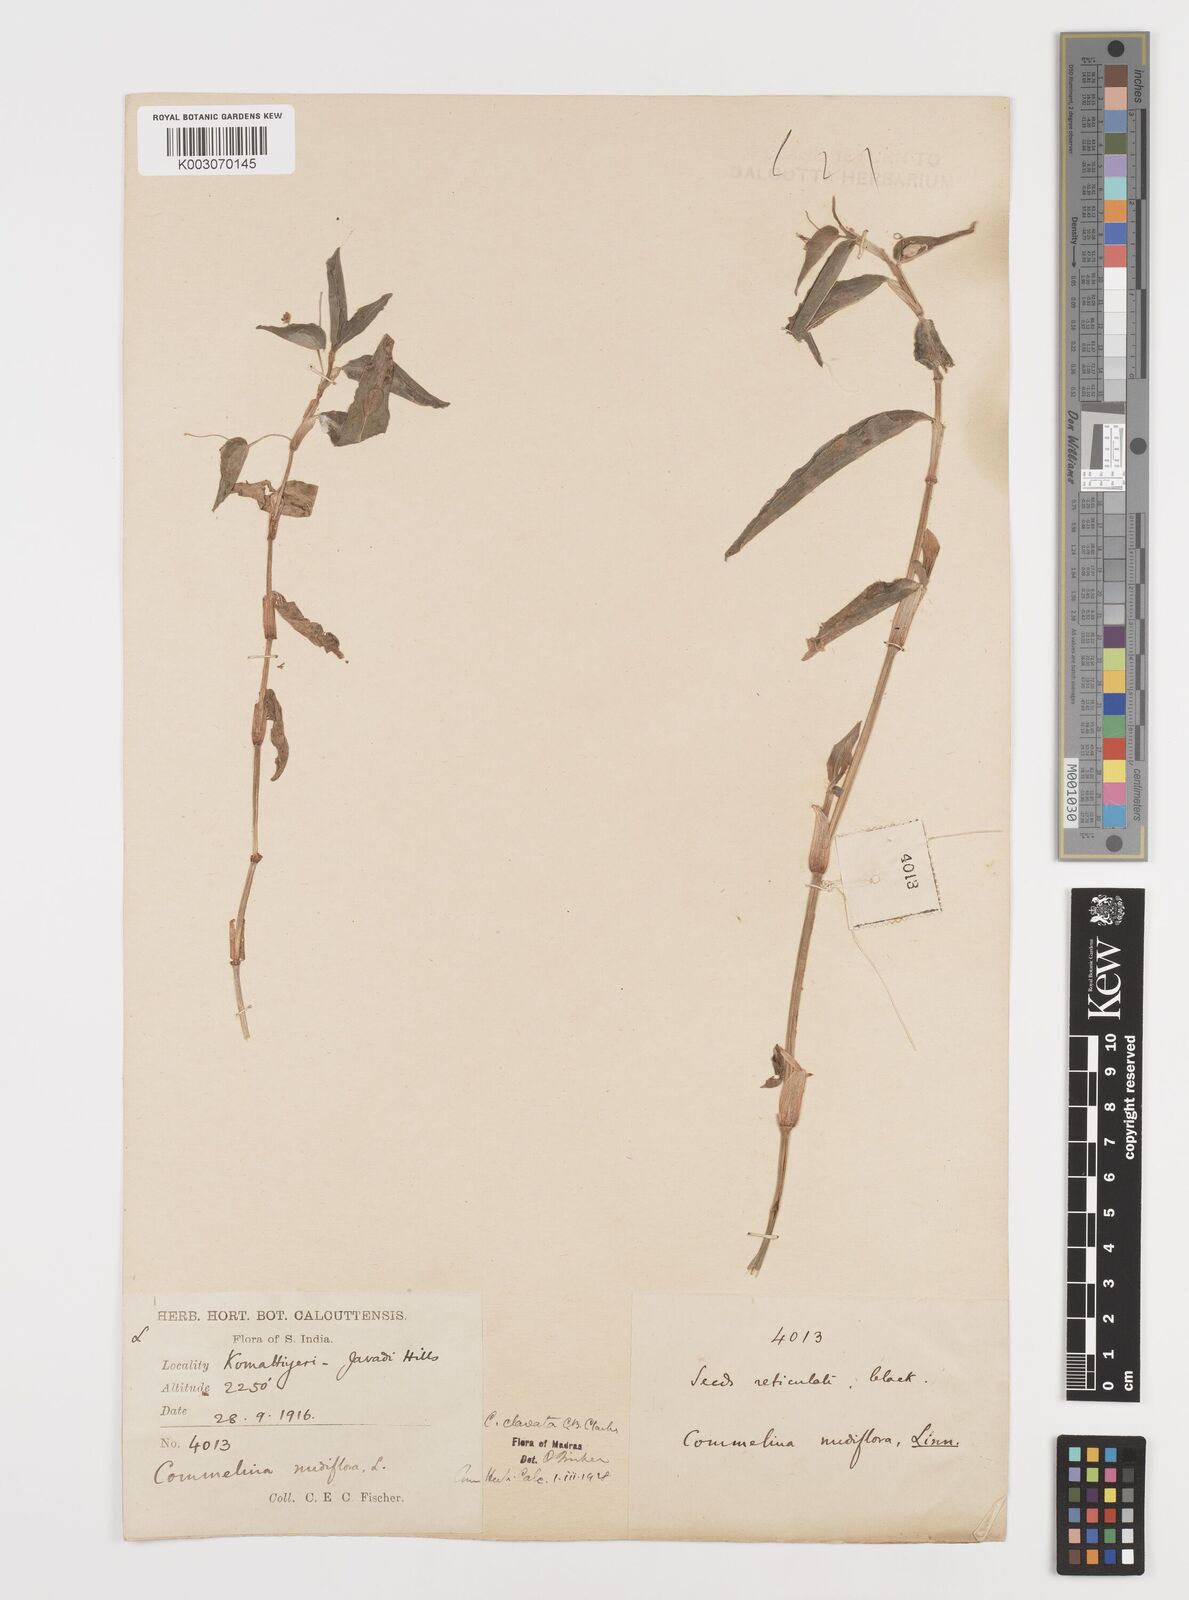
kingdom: Plantae
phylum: Tracheophyta
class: Liliopsida
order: Commelinales
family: Commelinaceae
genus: Commelina
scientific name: Commelina clavata
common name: Willow leaved dayflower
